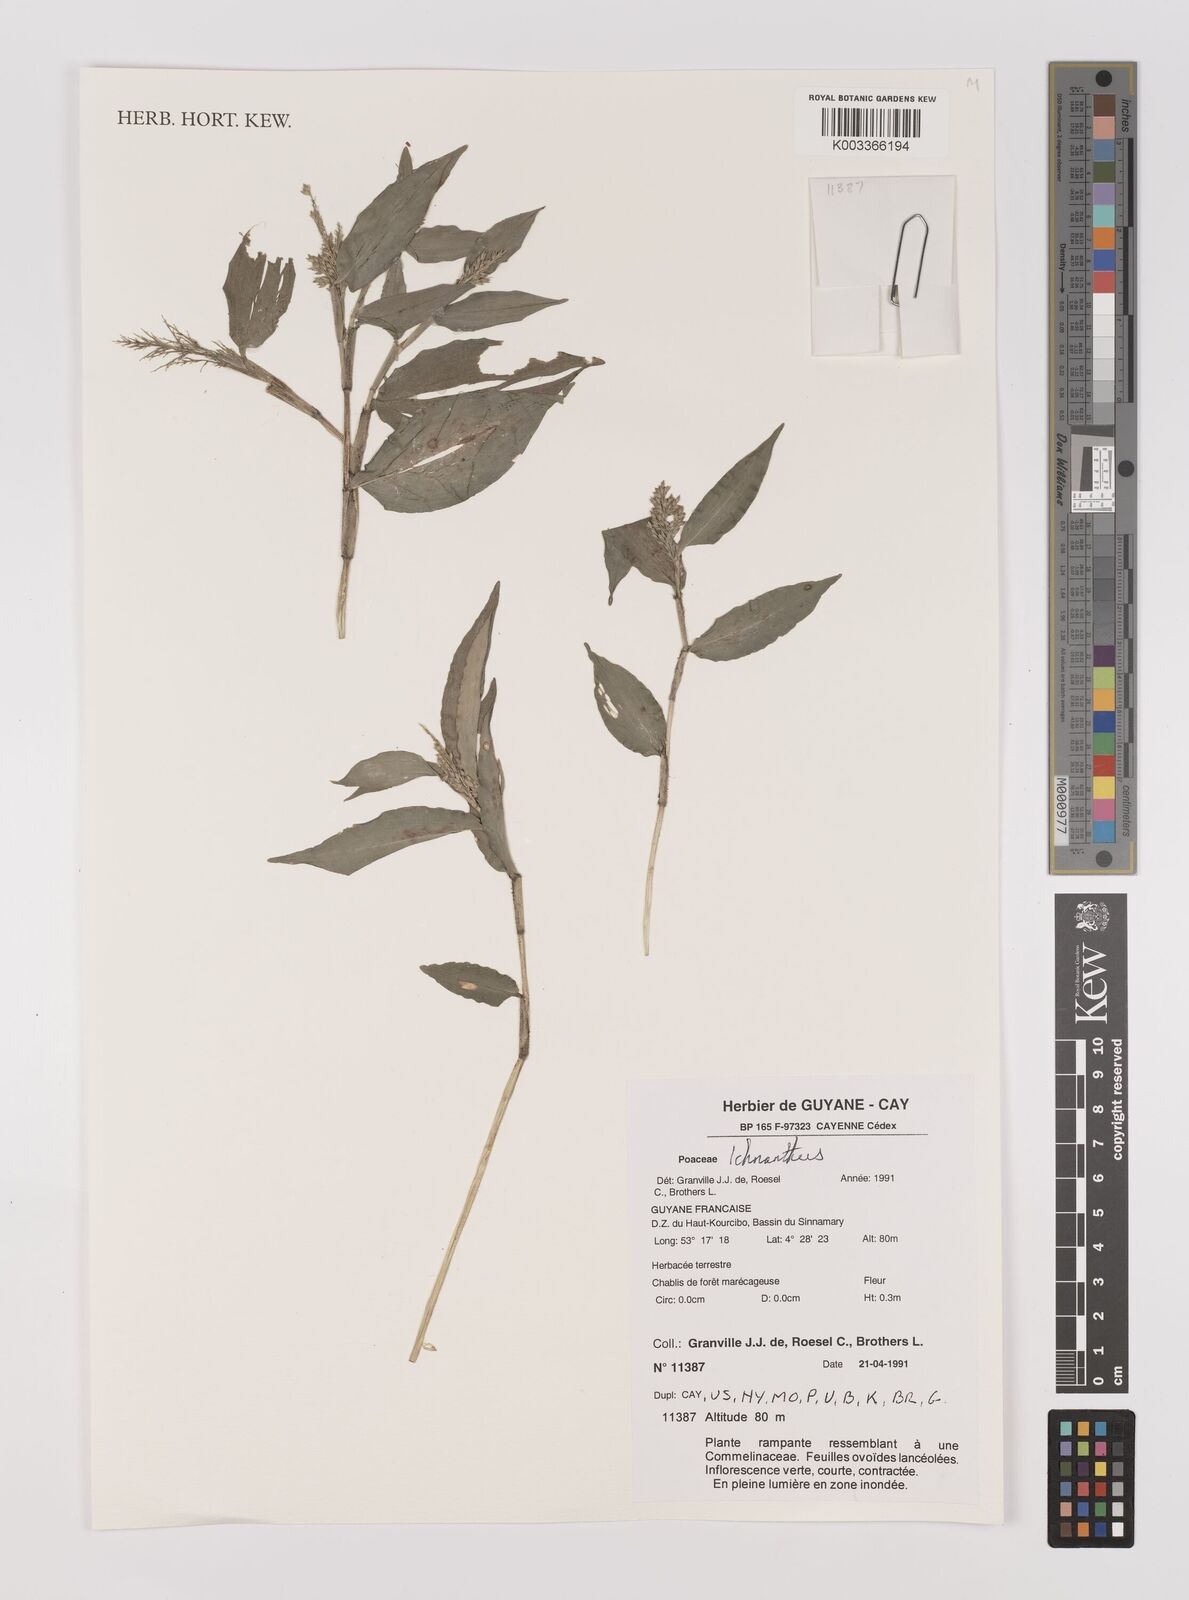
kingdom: Plantae
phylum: Tracheophyta
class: Liliopsida
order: Poales
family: Poaceae
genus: Ichnanthus
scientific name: Ichnanthus pallens
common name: Water grass
